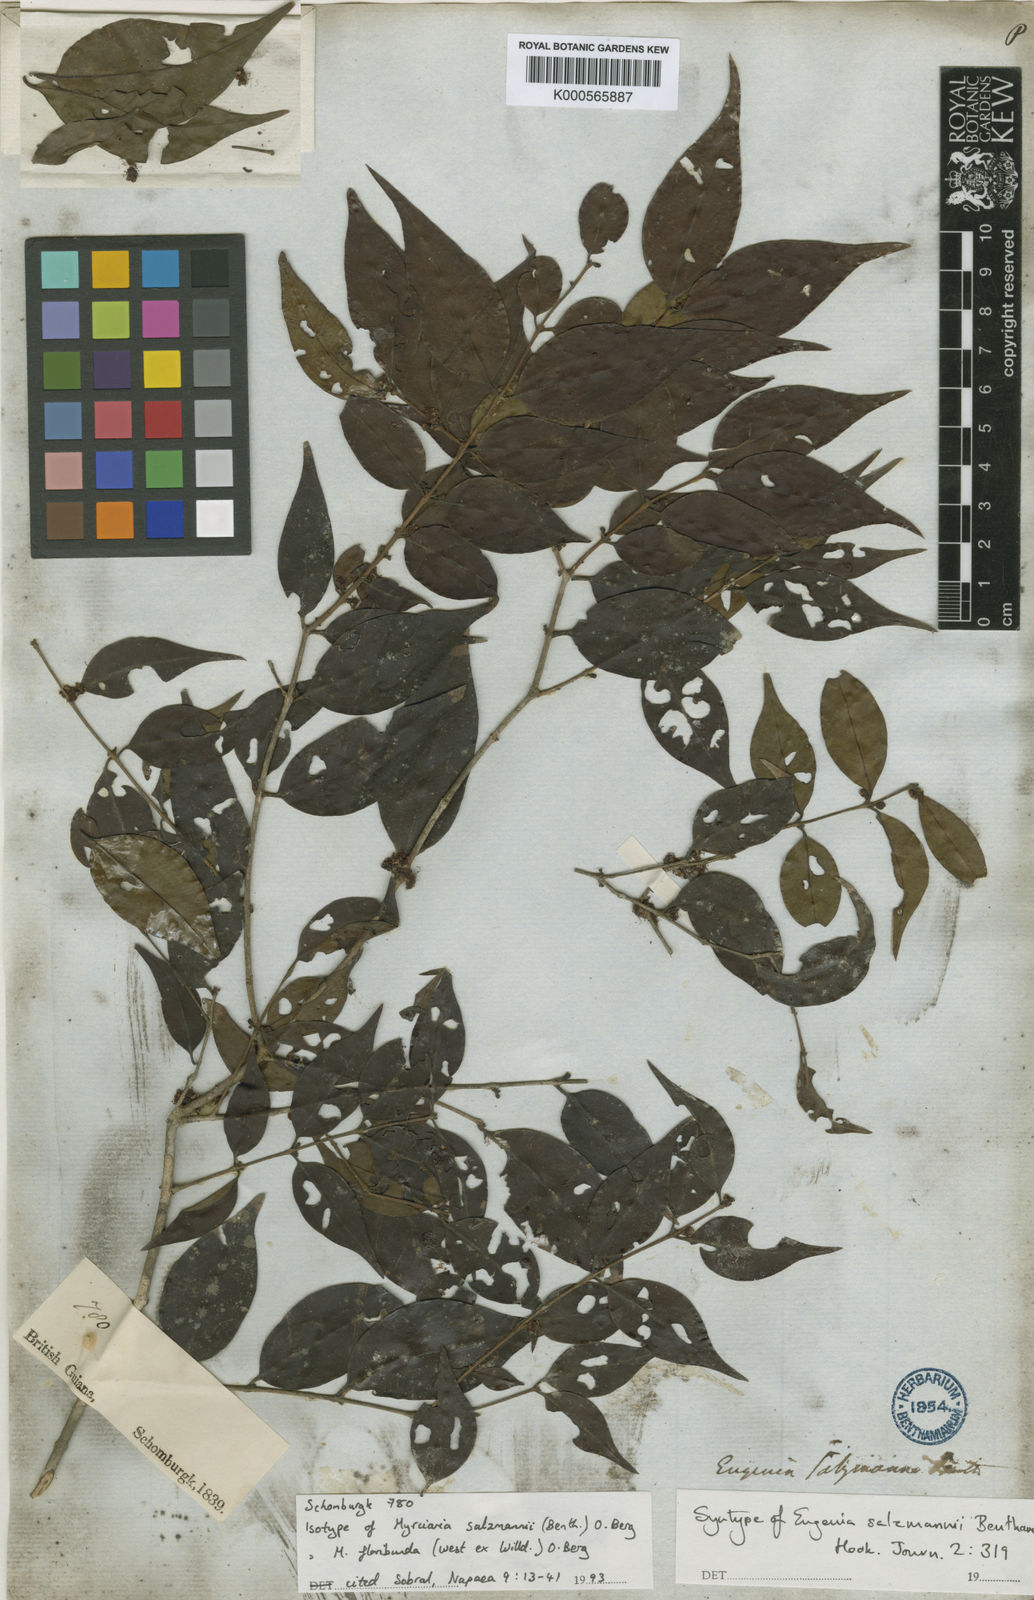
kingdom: Plantae
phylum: Tracheophyta
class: Magnoliopsida
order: Myrtales
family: Myrtaceae
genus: Myrciaria
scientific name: Myrciaria floribunda
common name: Guavaberry
